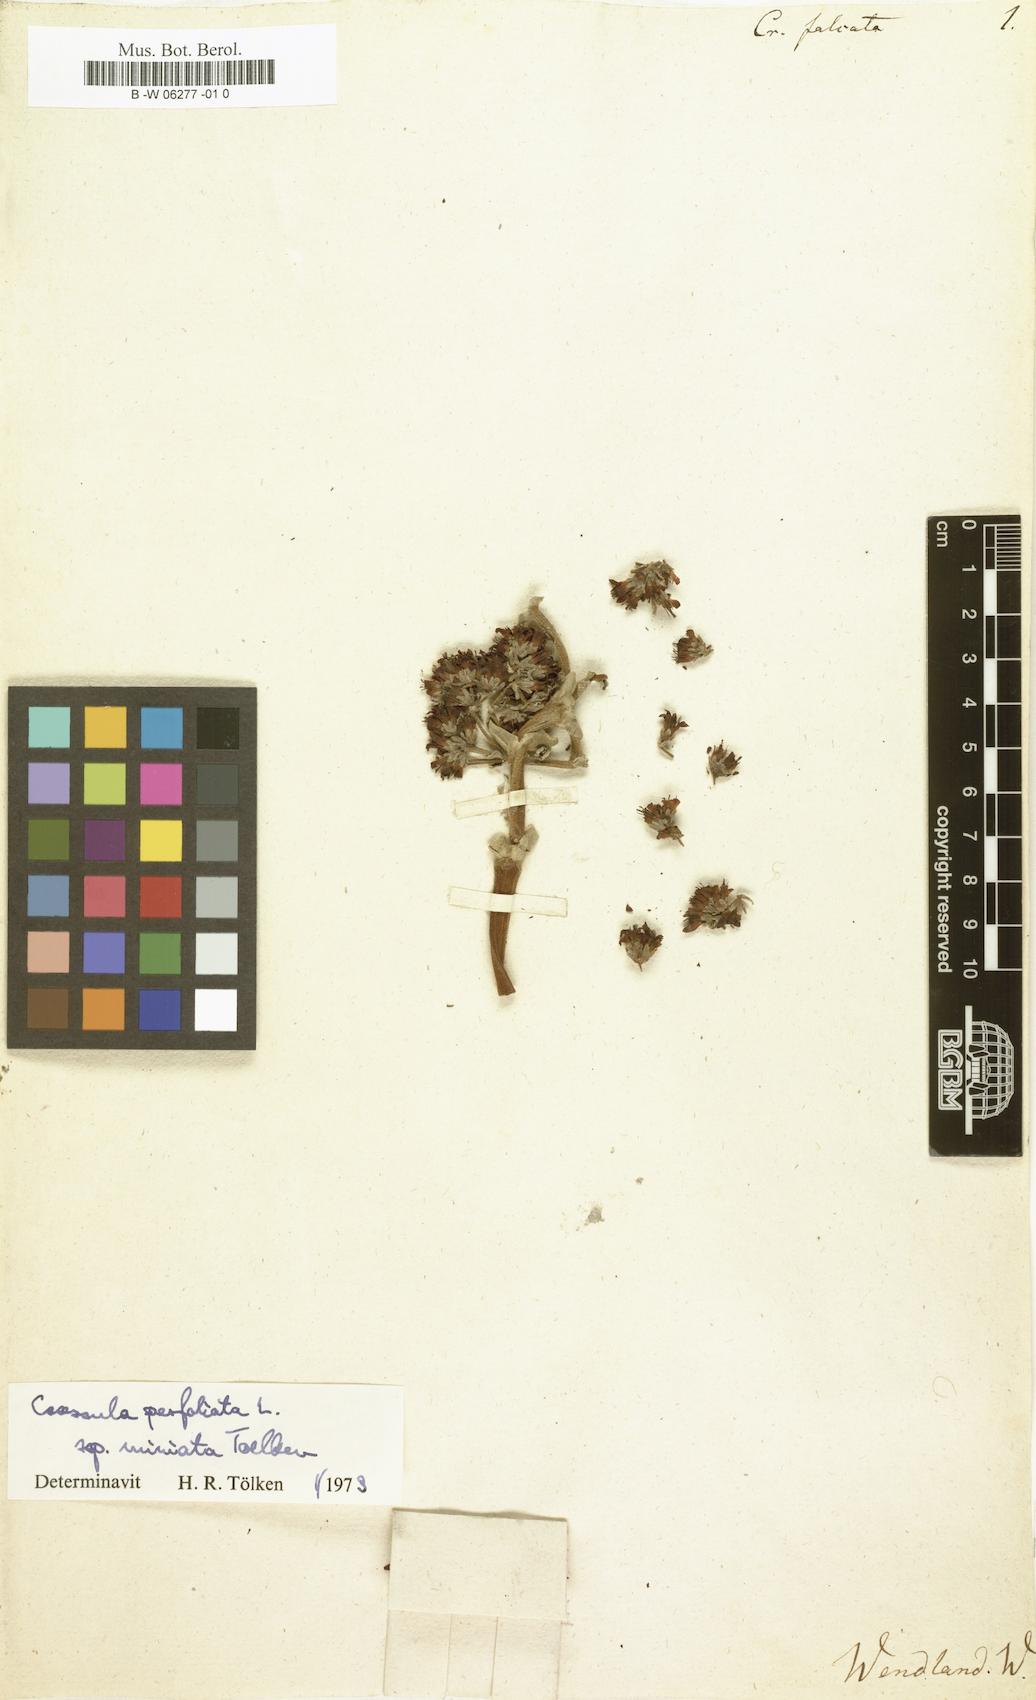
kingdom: Plantae
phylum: Tracheophyta
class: Magnoliopsida
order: Saxifragales
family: Crassulaceae
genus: Crassula
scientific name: Crassula perfoliata
